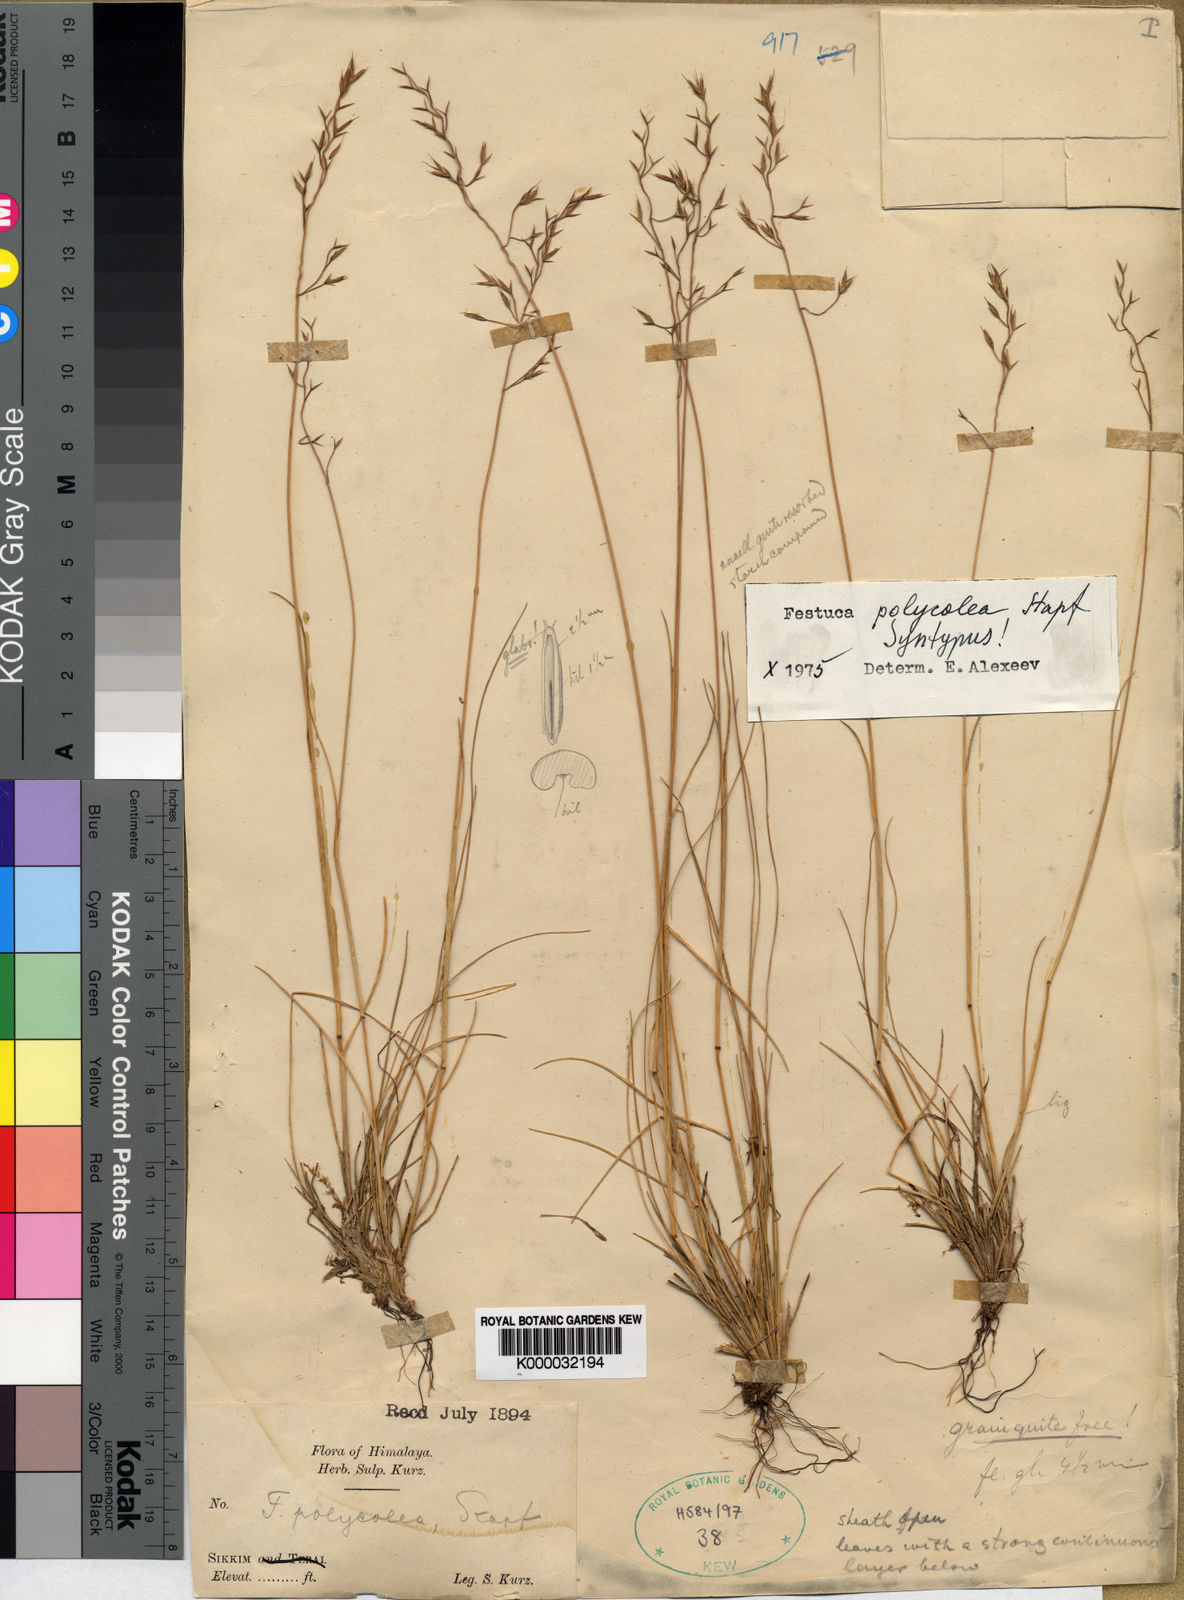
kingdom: Plantae
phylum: Tracheophyta
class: Liliopsida
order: Poales
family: Poaceae
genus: Festuca
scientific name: Festuca polycolea
